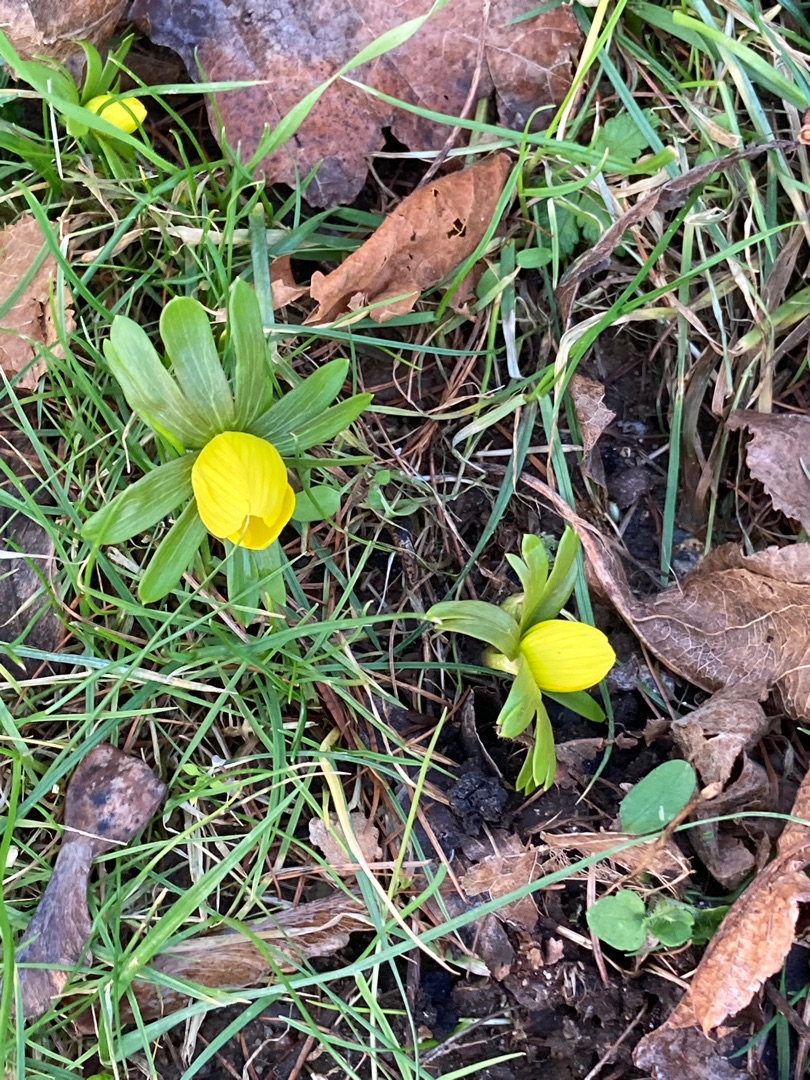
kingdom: Plantae
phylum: Tracheophyta
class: Magnoliopsida
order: Ranunculales
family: Ranunculaceae
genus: Eranthis
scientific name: Eranthis hyemalis
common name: Erantis
